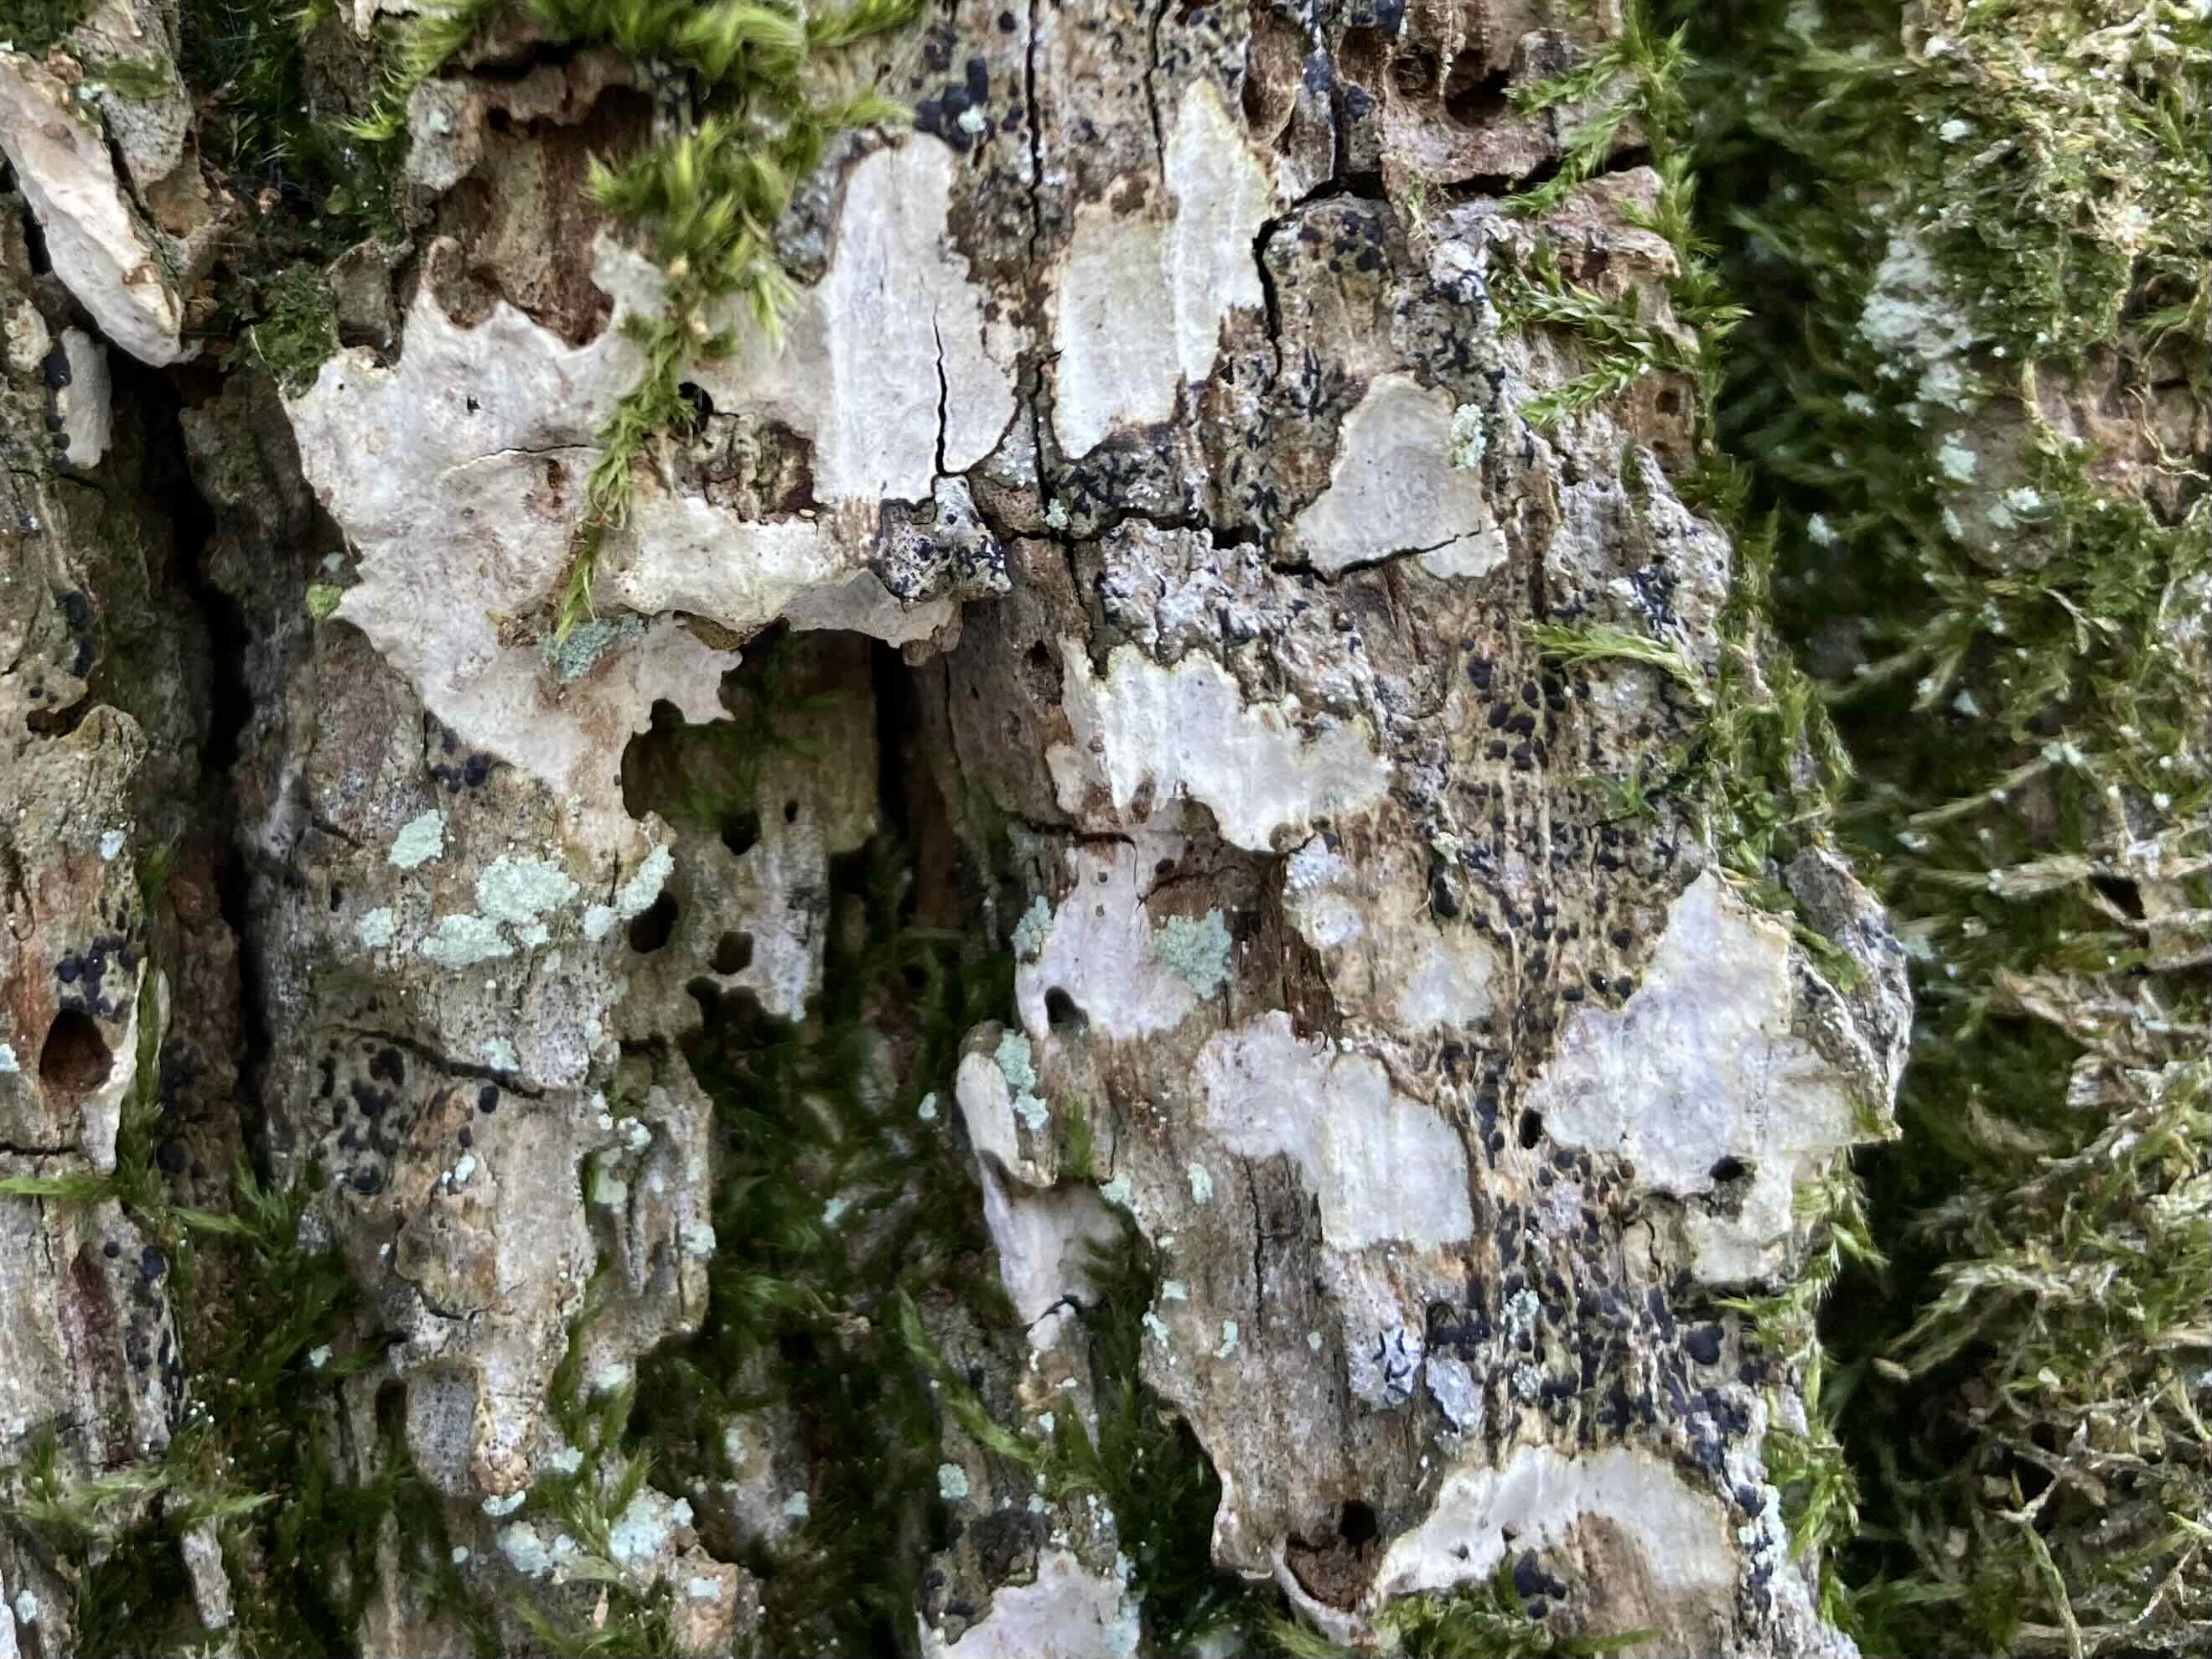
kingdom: Fungi
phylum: Basidiomycota
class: Agaricomycetes
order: Agaricales
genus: Dendrothele
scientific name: Dendrothele commixta
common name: ege-kalkplet
